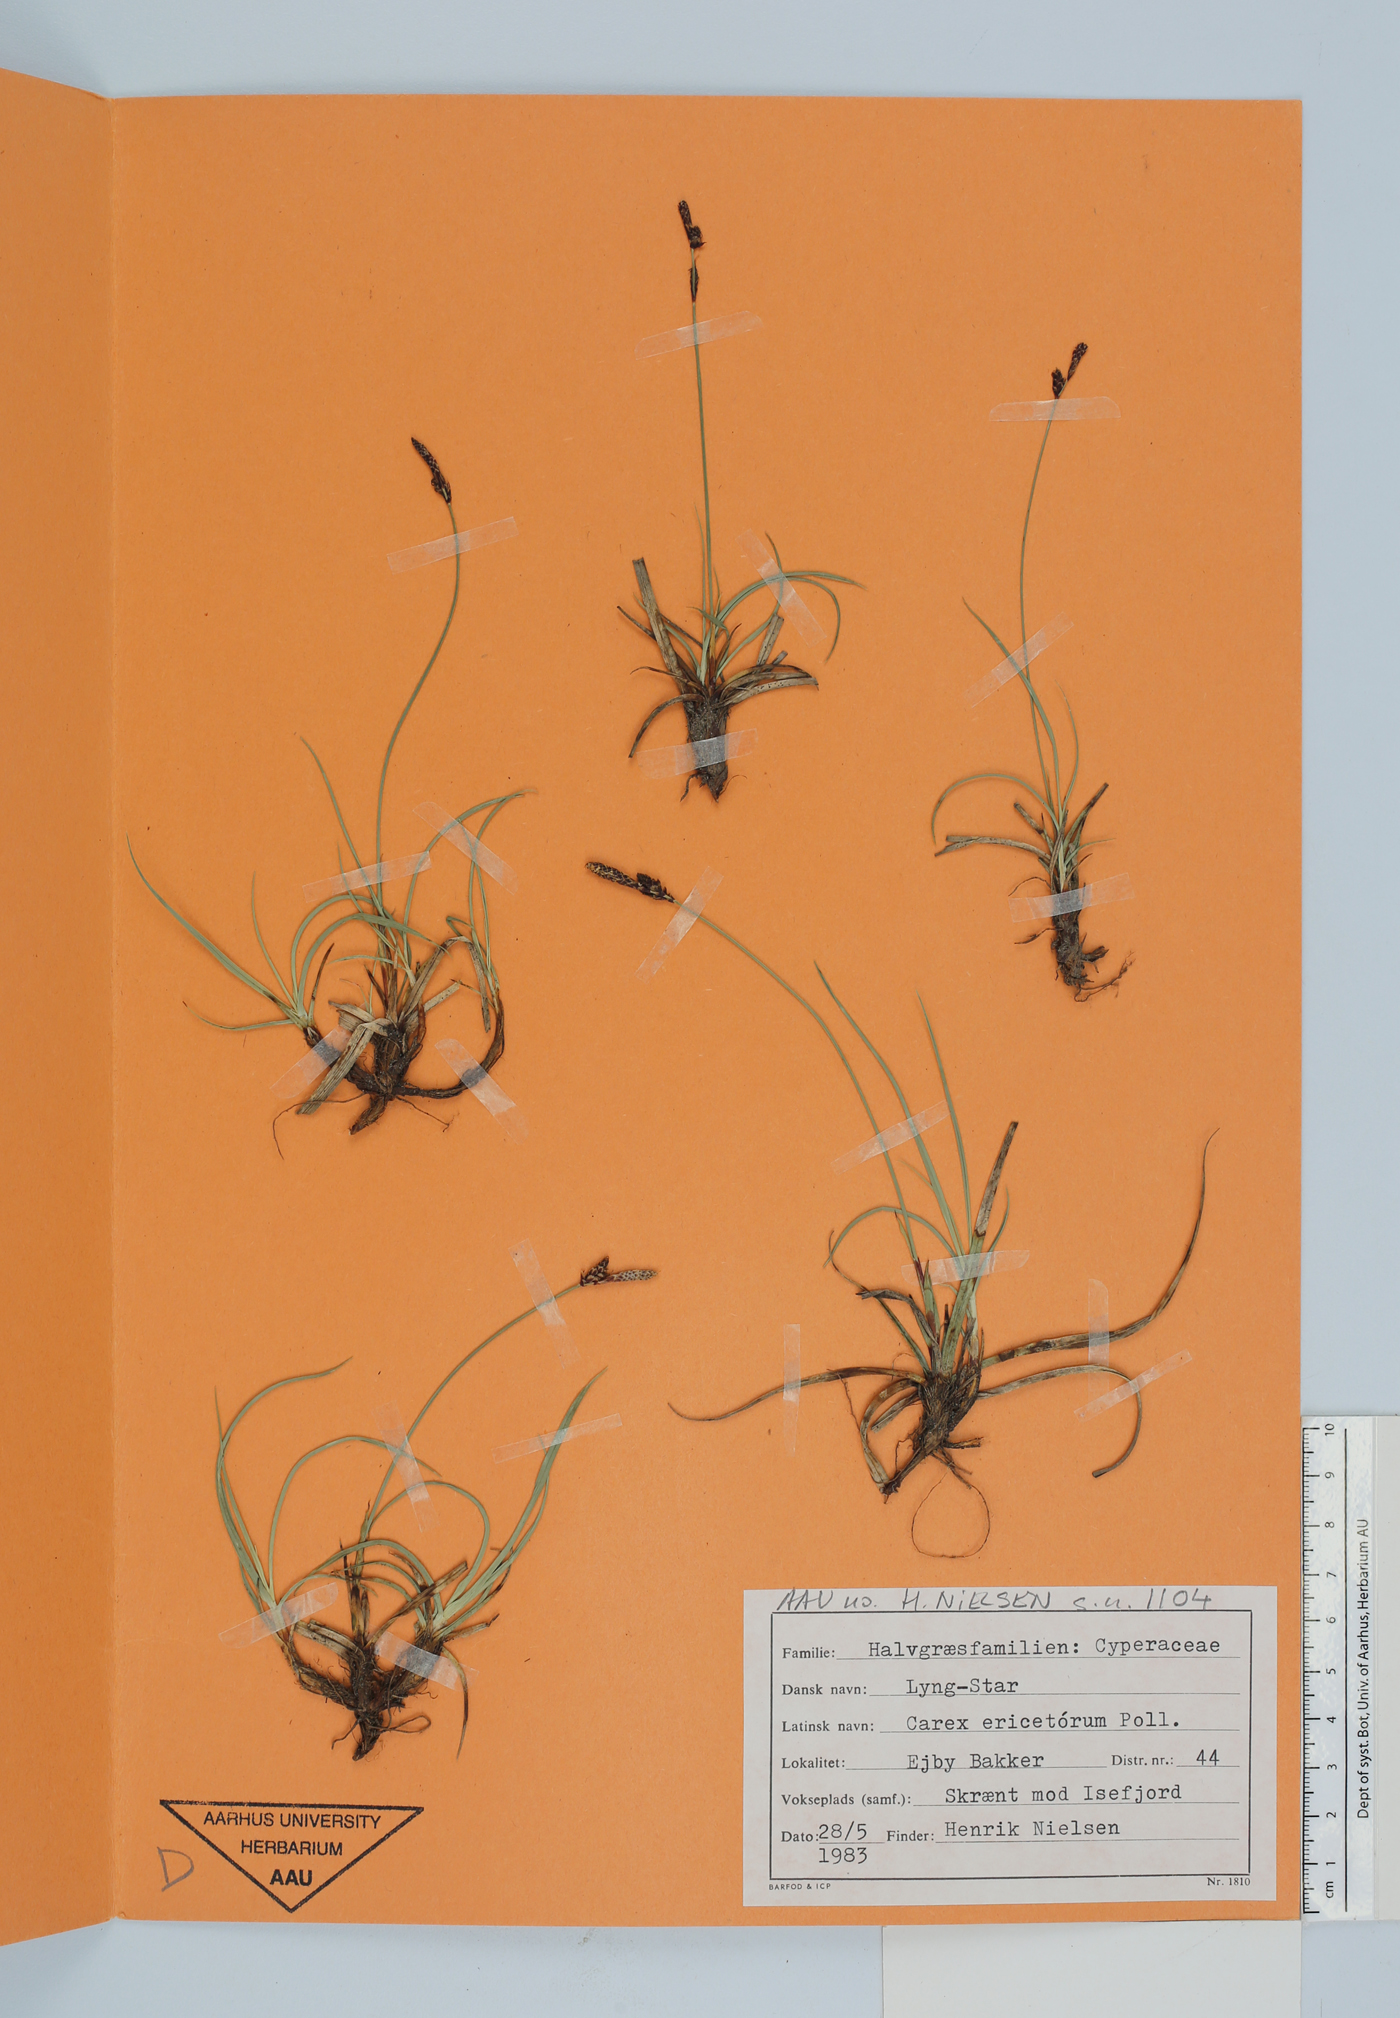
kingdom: Plantae
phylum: Tracheophyta
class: Liliopsida
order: Poales
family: Cyperaceae
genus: Carex
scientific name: Carex ericetorum
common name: Rare spring-sedge
